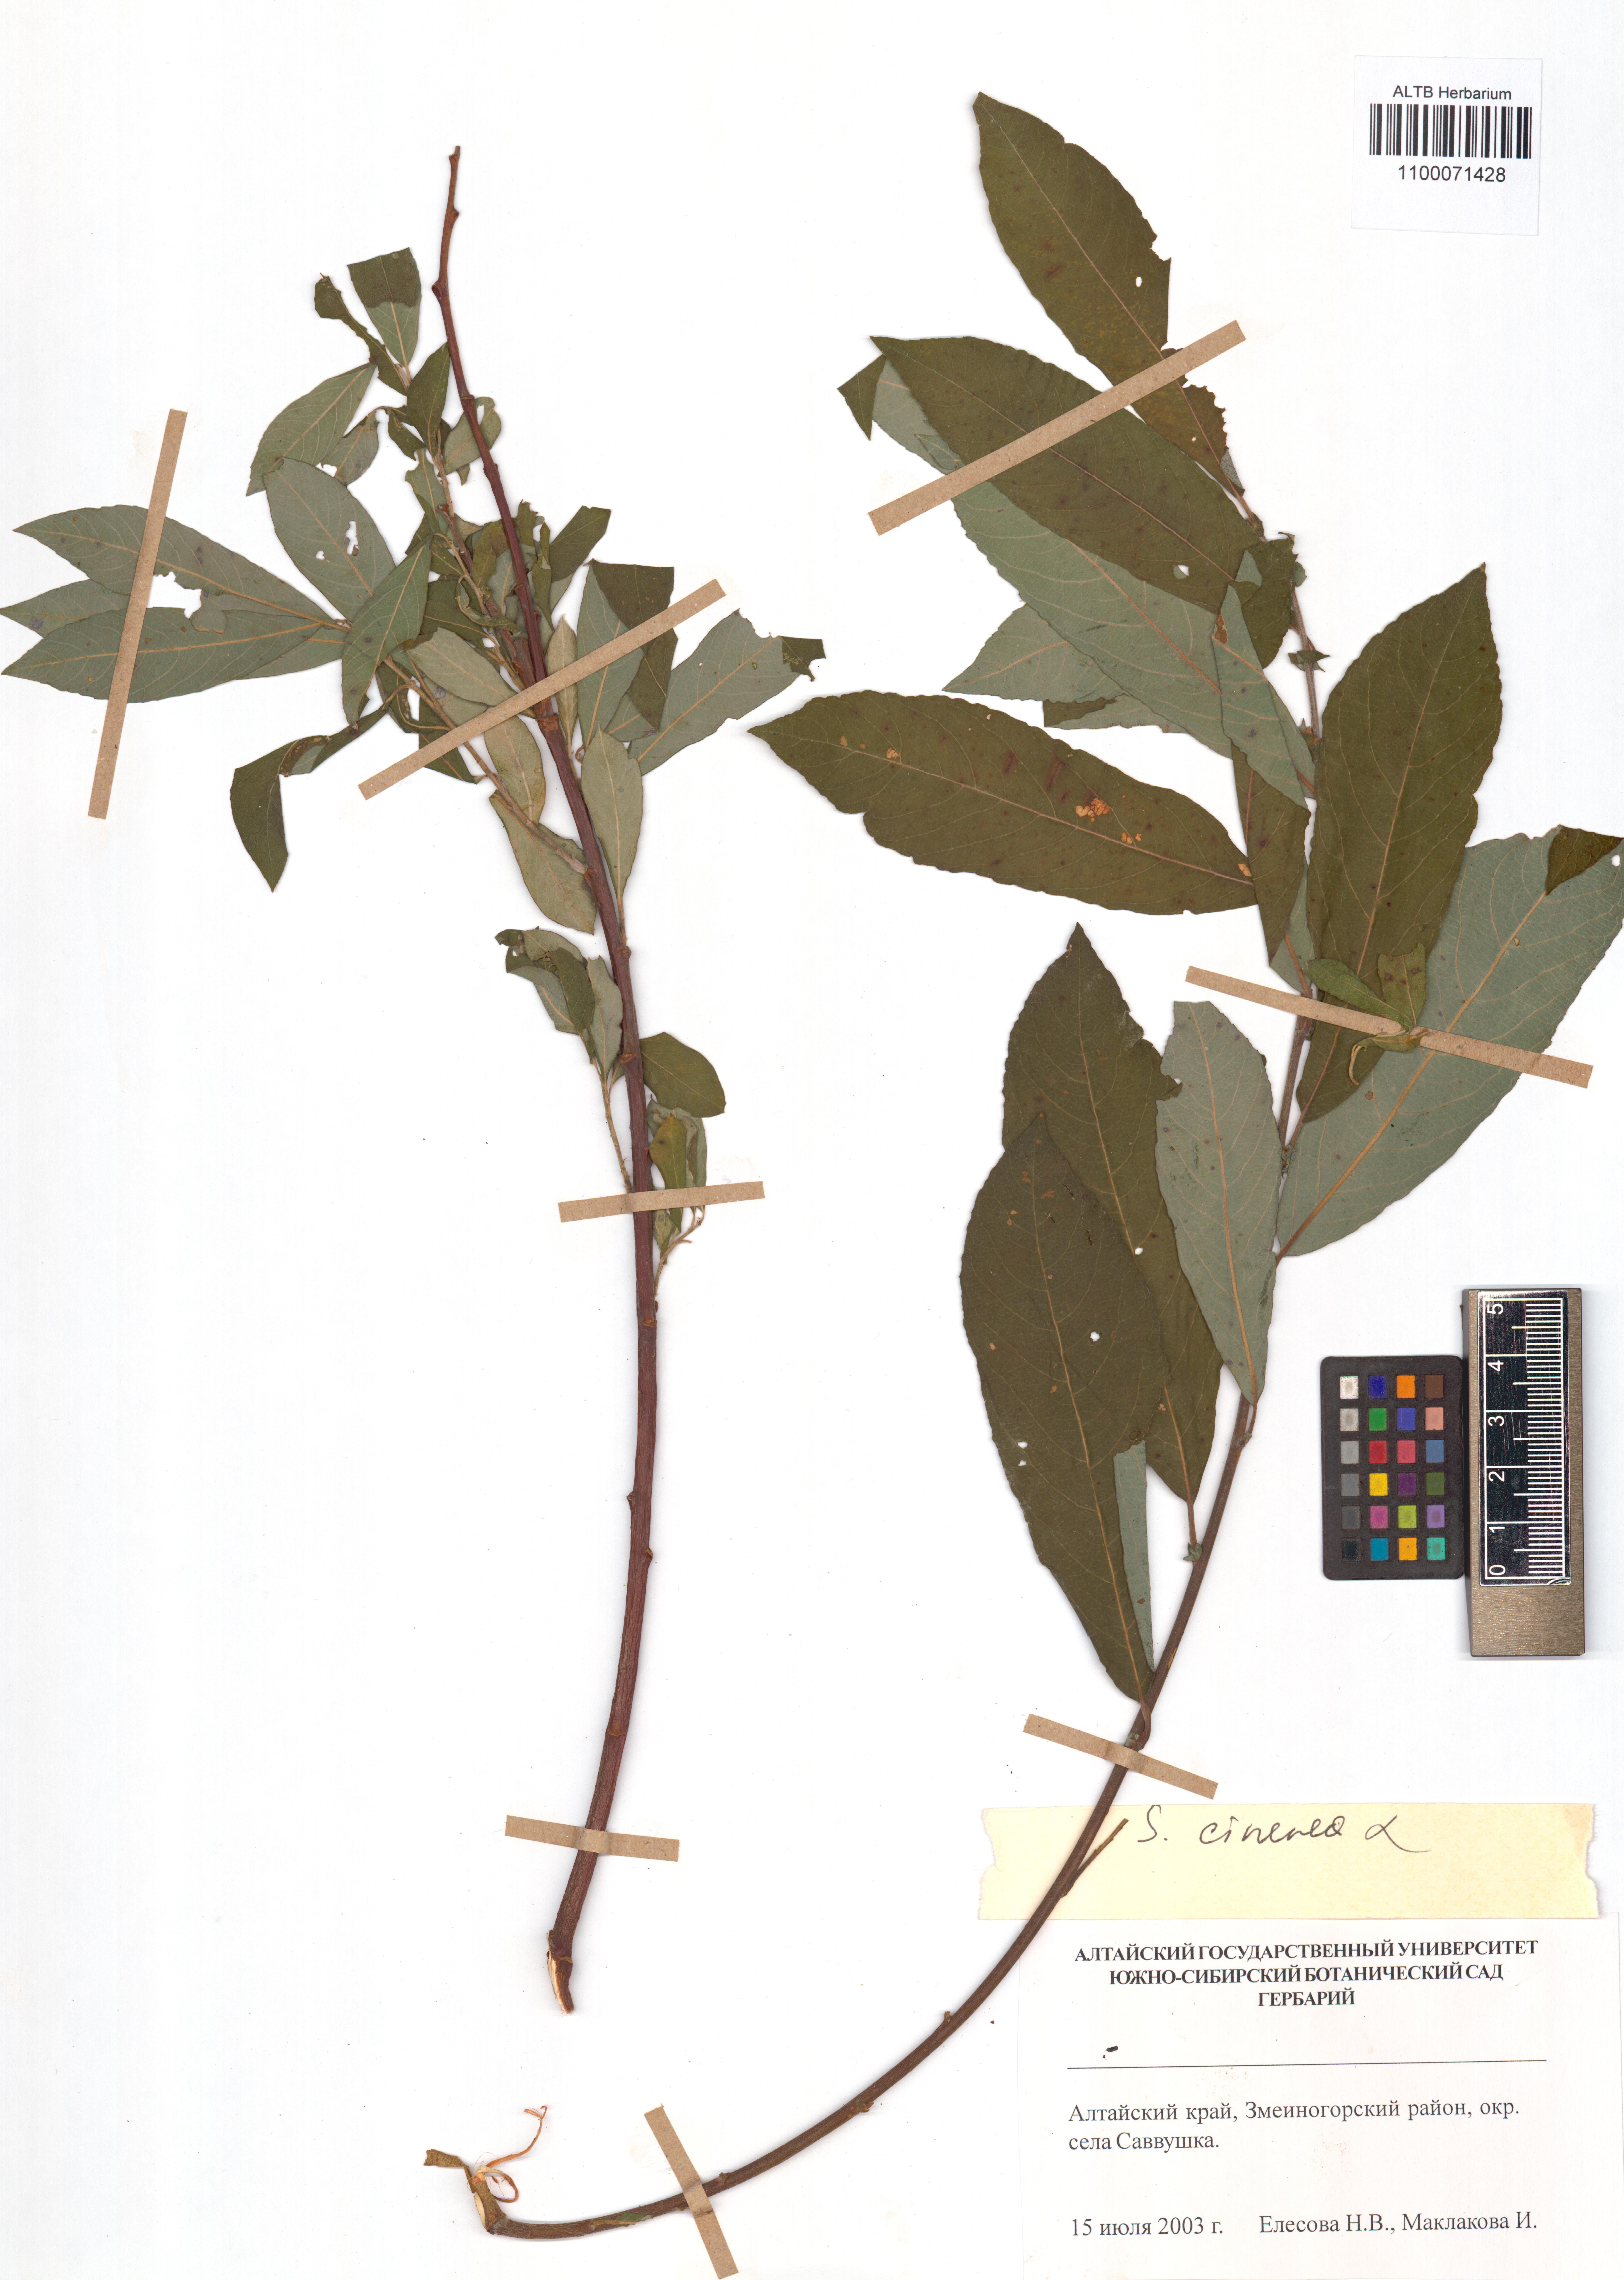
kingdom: Plantae
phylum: Tracheophyta
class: Magnoliopsida
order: Malpighiales
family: Salicaceae
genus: Salix
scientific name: Salix cinerea
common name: Common sallow
